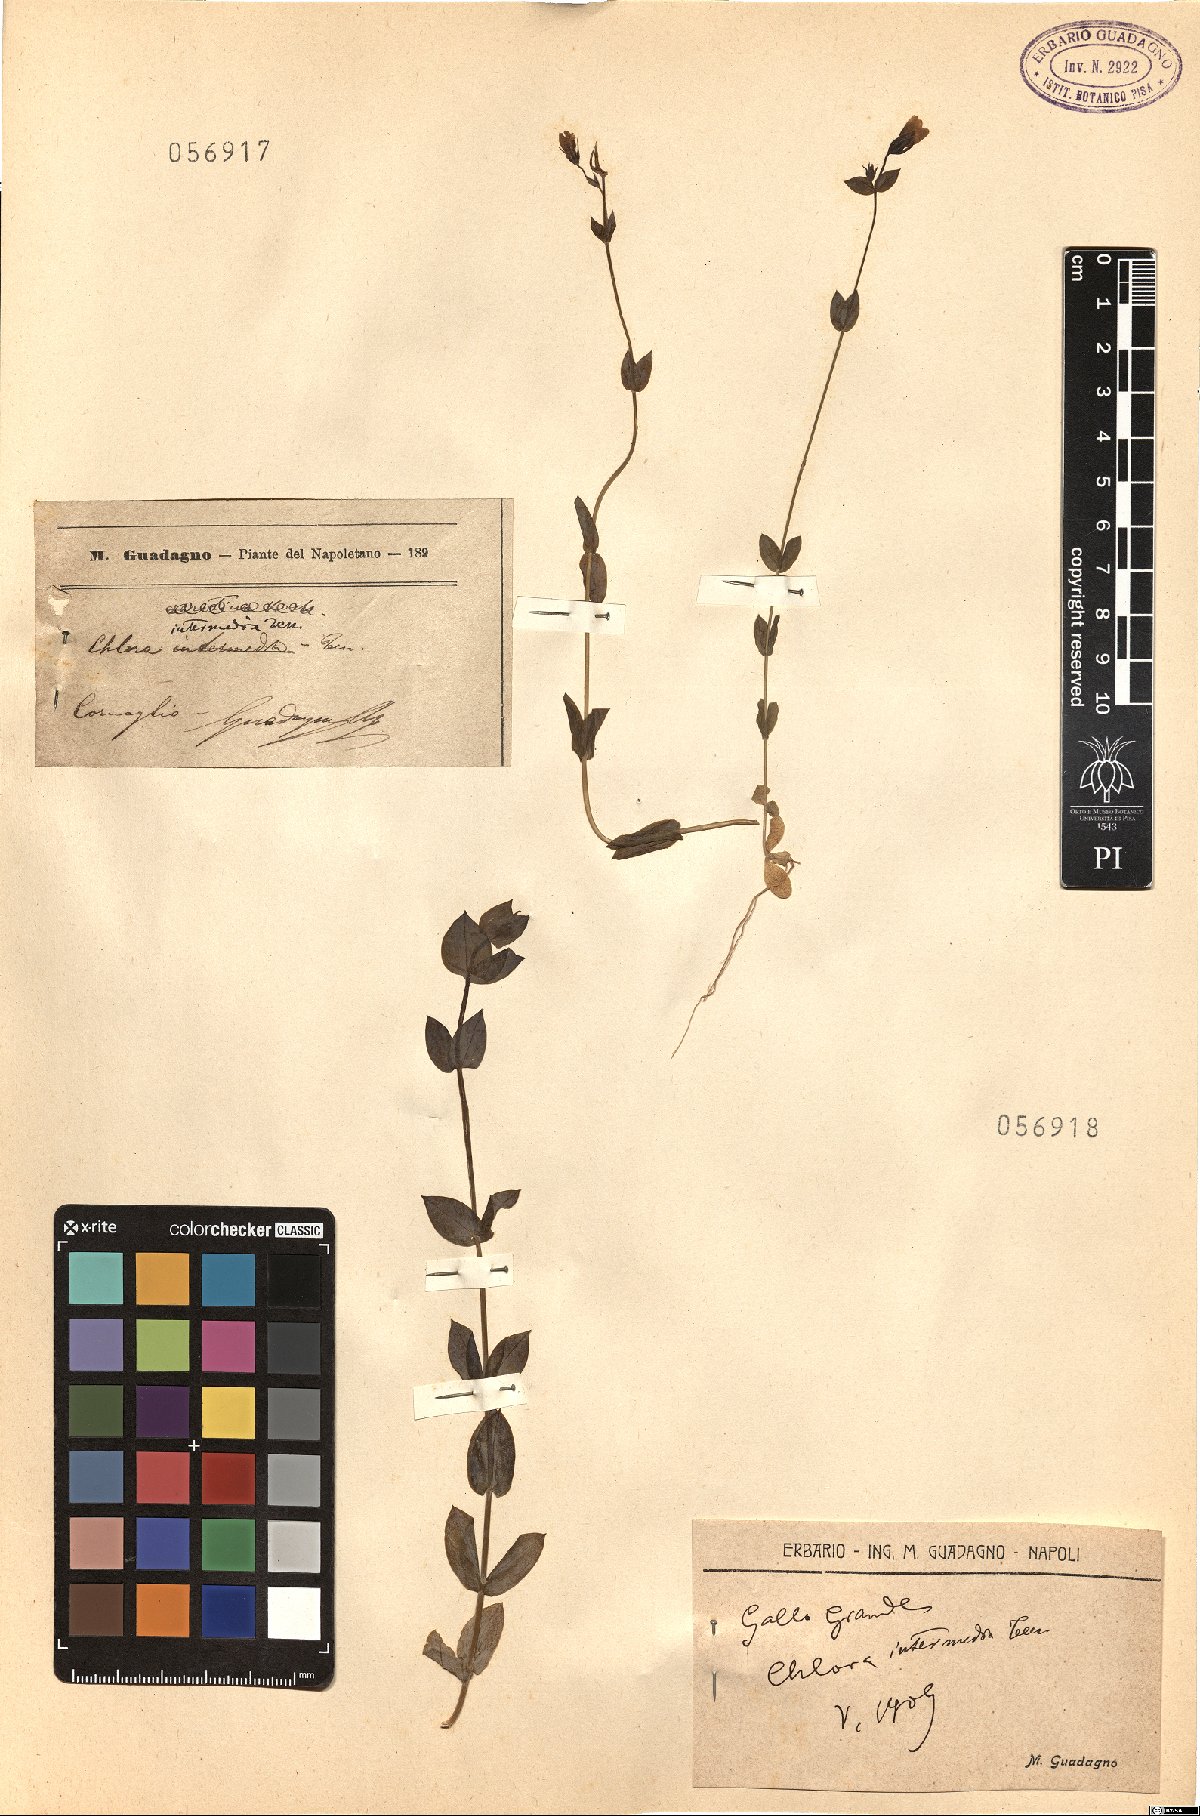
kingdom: Plantae
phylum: Tracheophyta
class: Magnoliopsida
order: Gentianales
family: Gentianaceae
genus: Blackstonia
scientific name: Blackstonia perfoliata
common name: Yellow-wort
